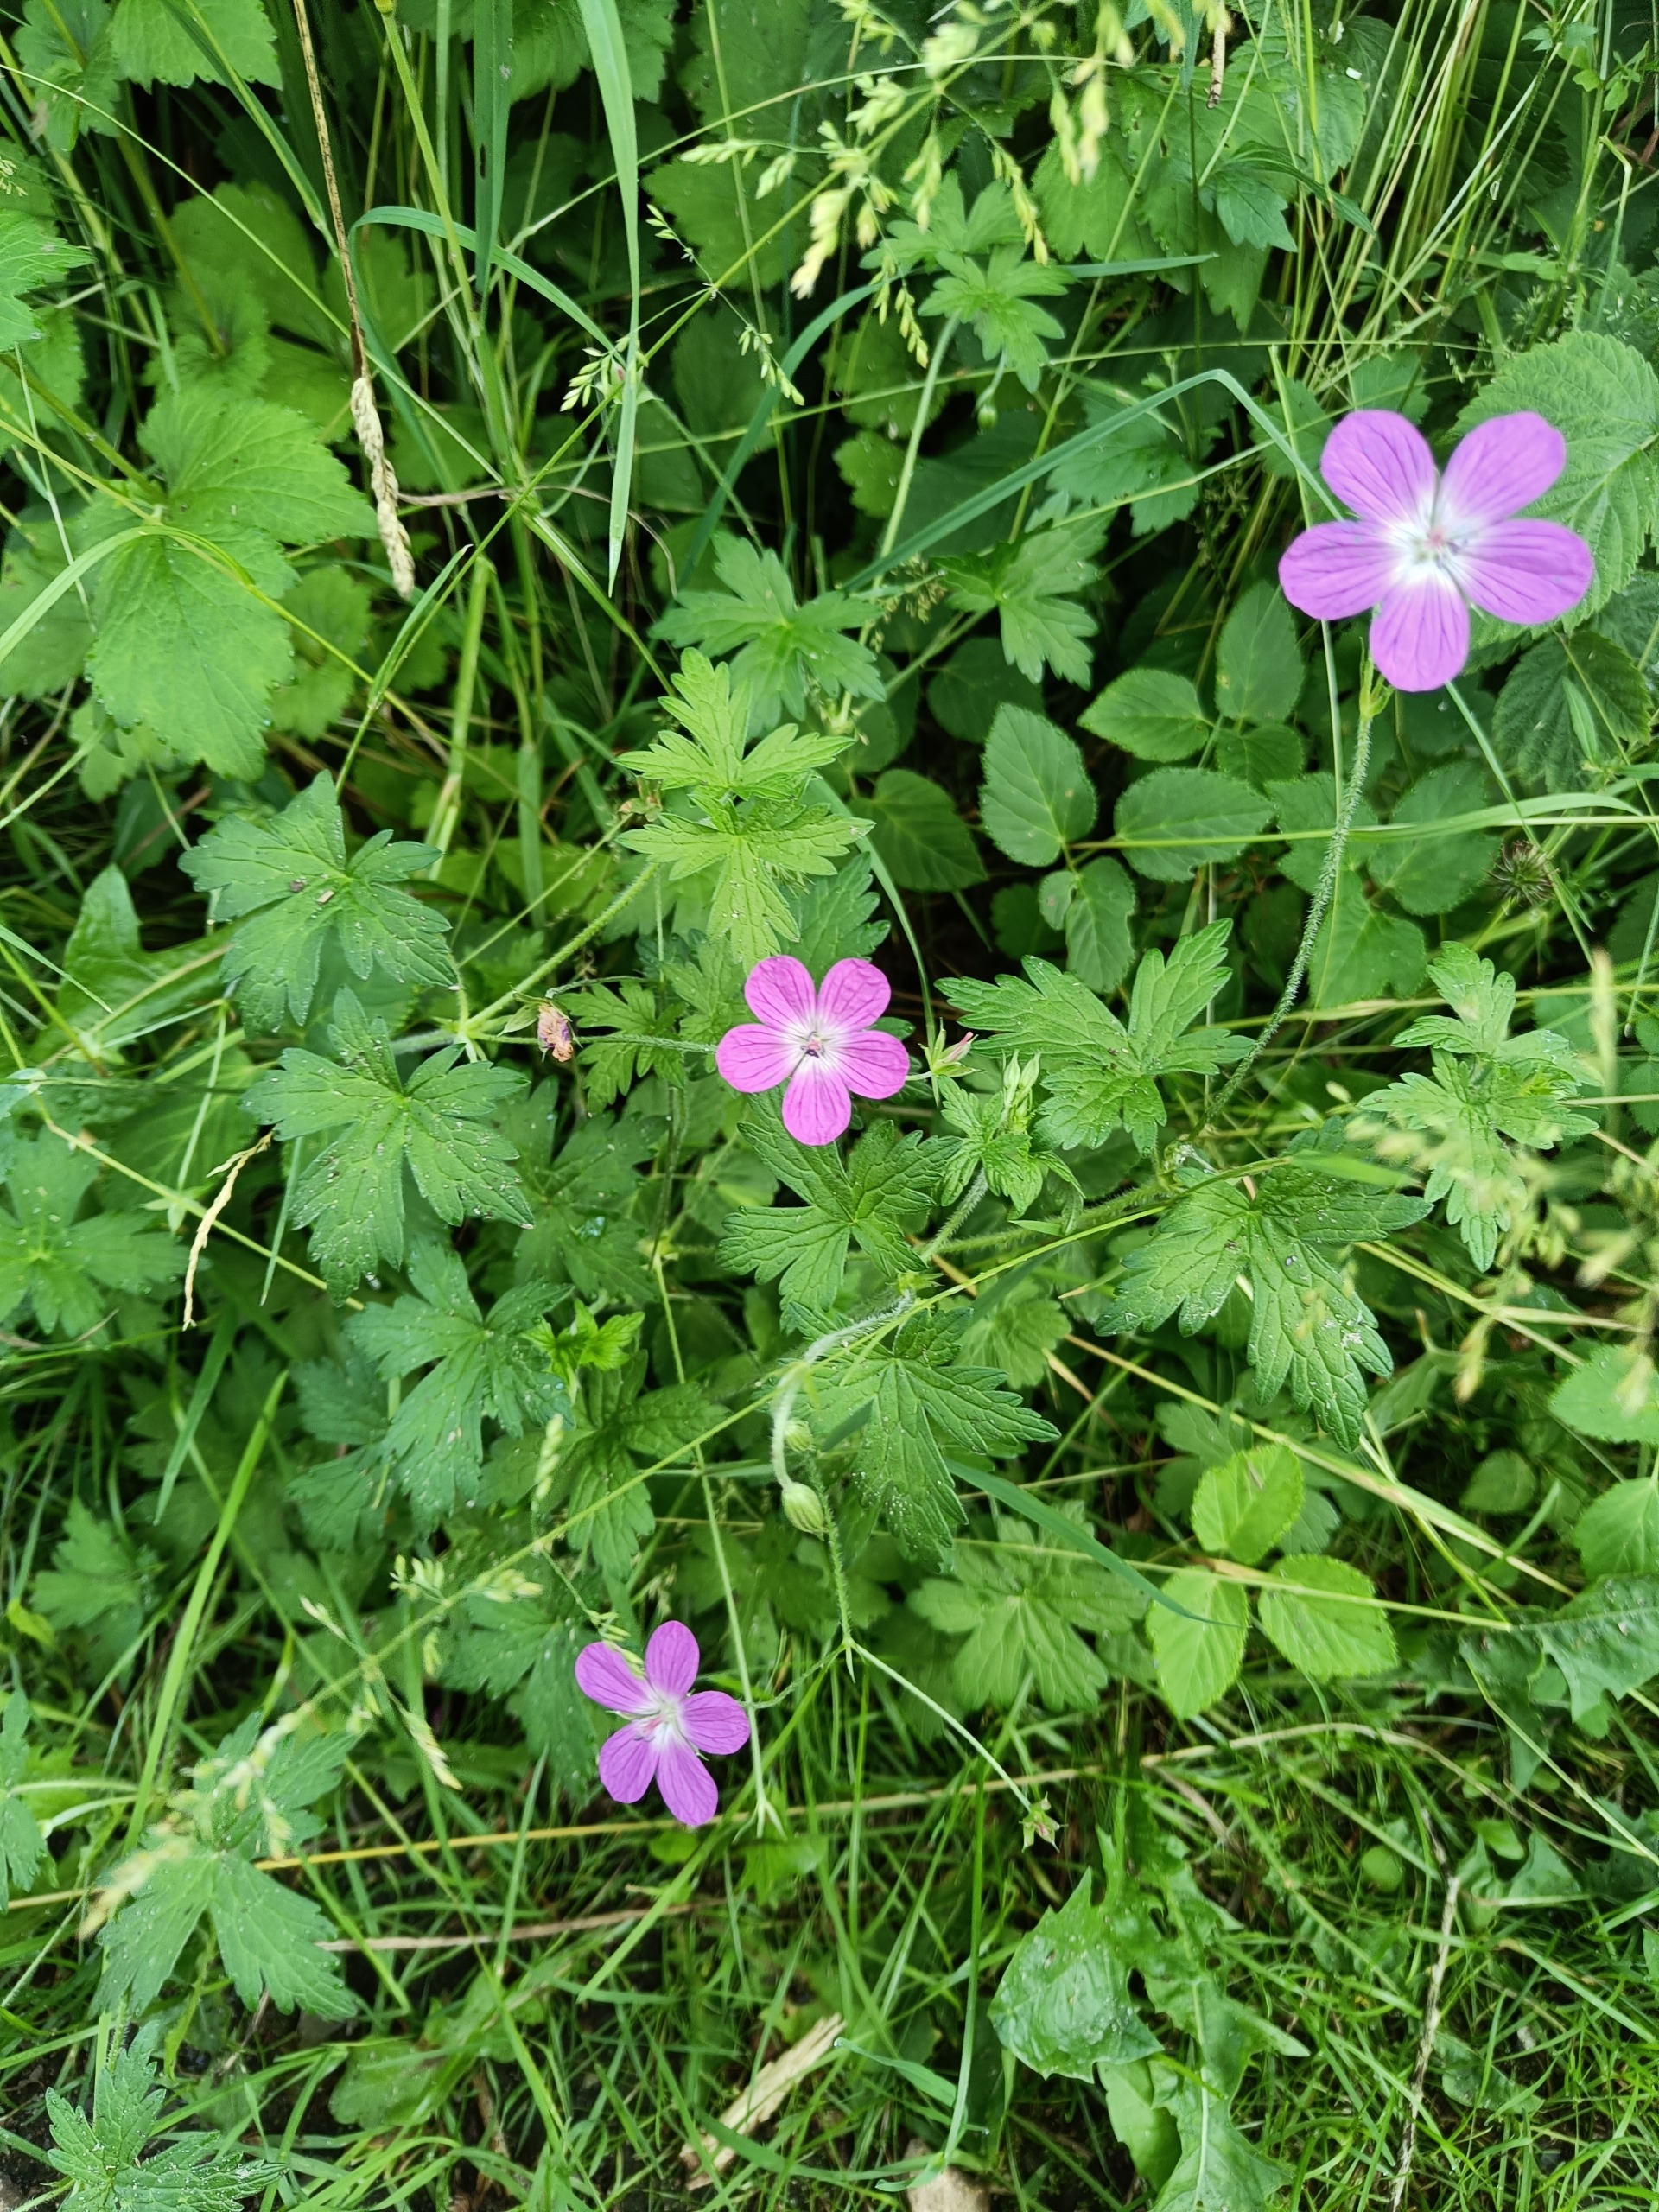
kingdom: Plantae
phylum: Tracheophyta
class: Magnoliopsida
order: Geraniales
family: Geraniaceae
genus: Geranium
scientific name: Geranium palustre
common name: Kær-storkenæb
